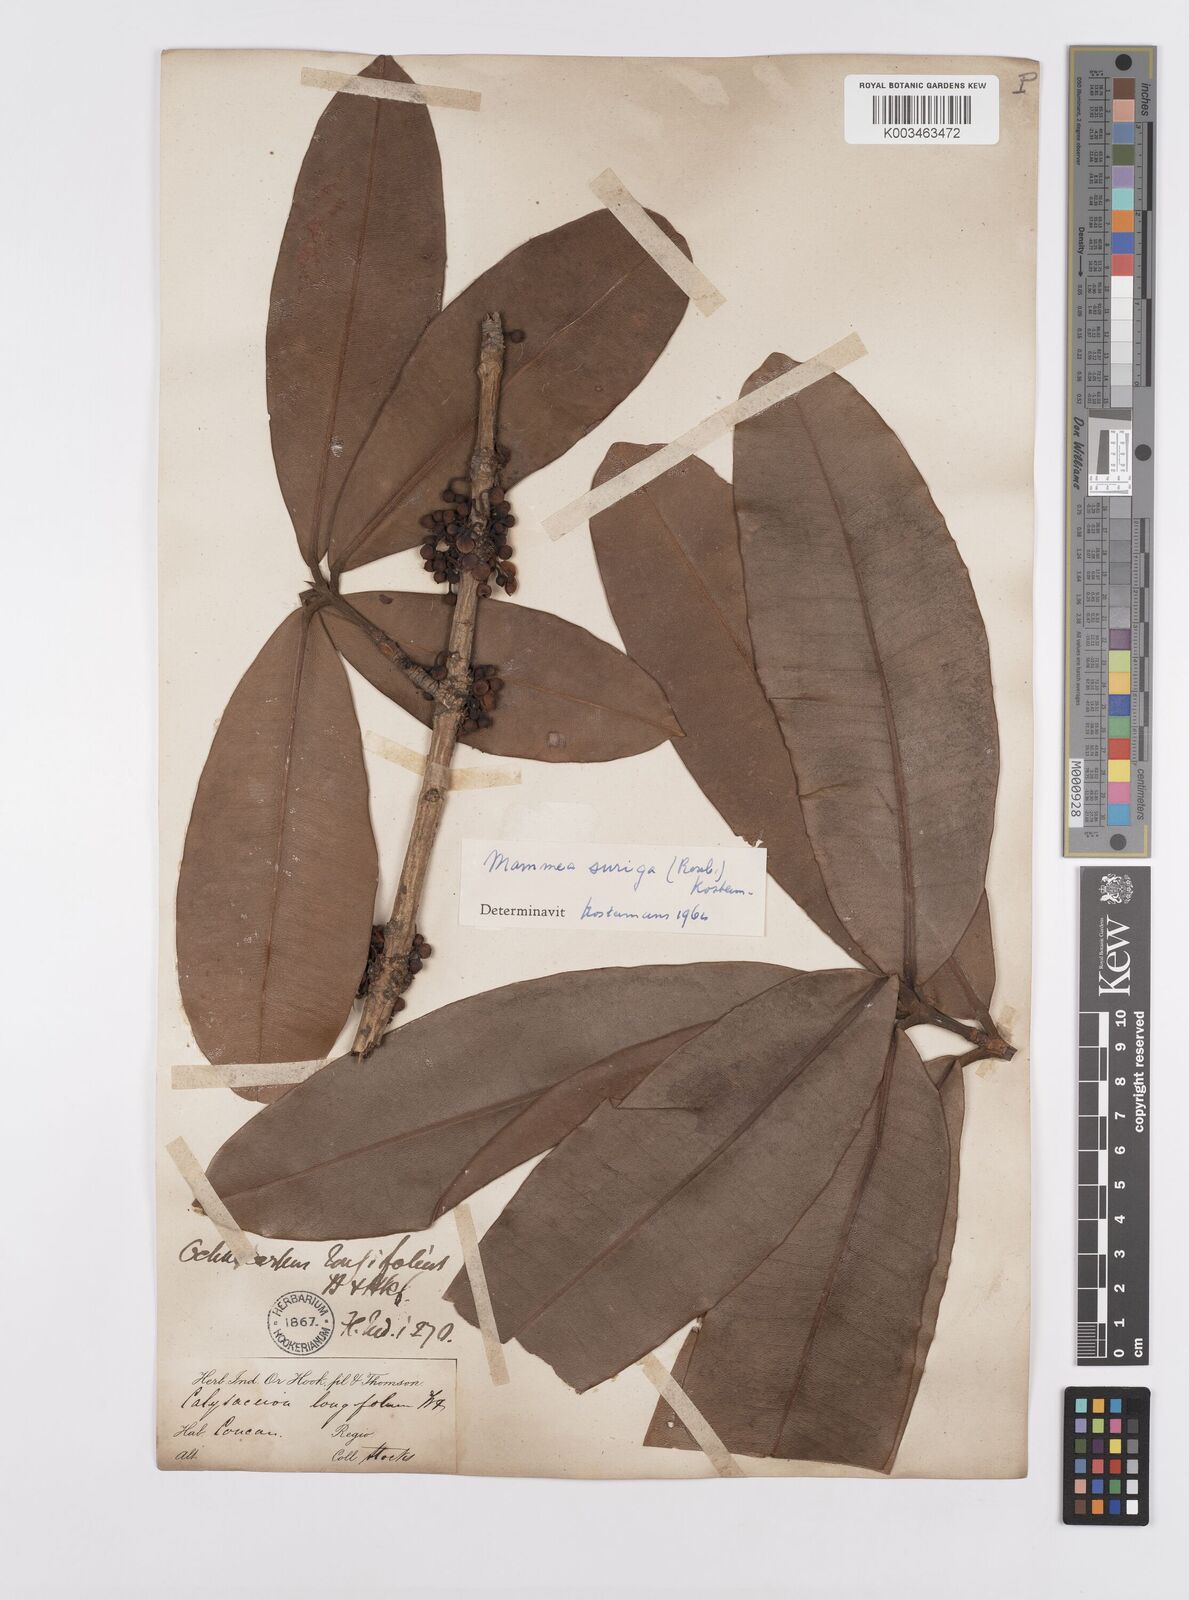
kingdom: Plantae
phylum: Tracheophyta
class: Magnoliopsida
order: Malpighiales
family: Calophyllaceae
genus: Mammea
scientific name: Mammea suriga
